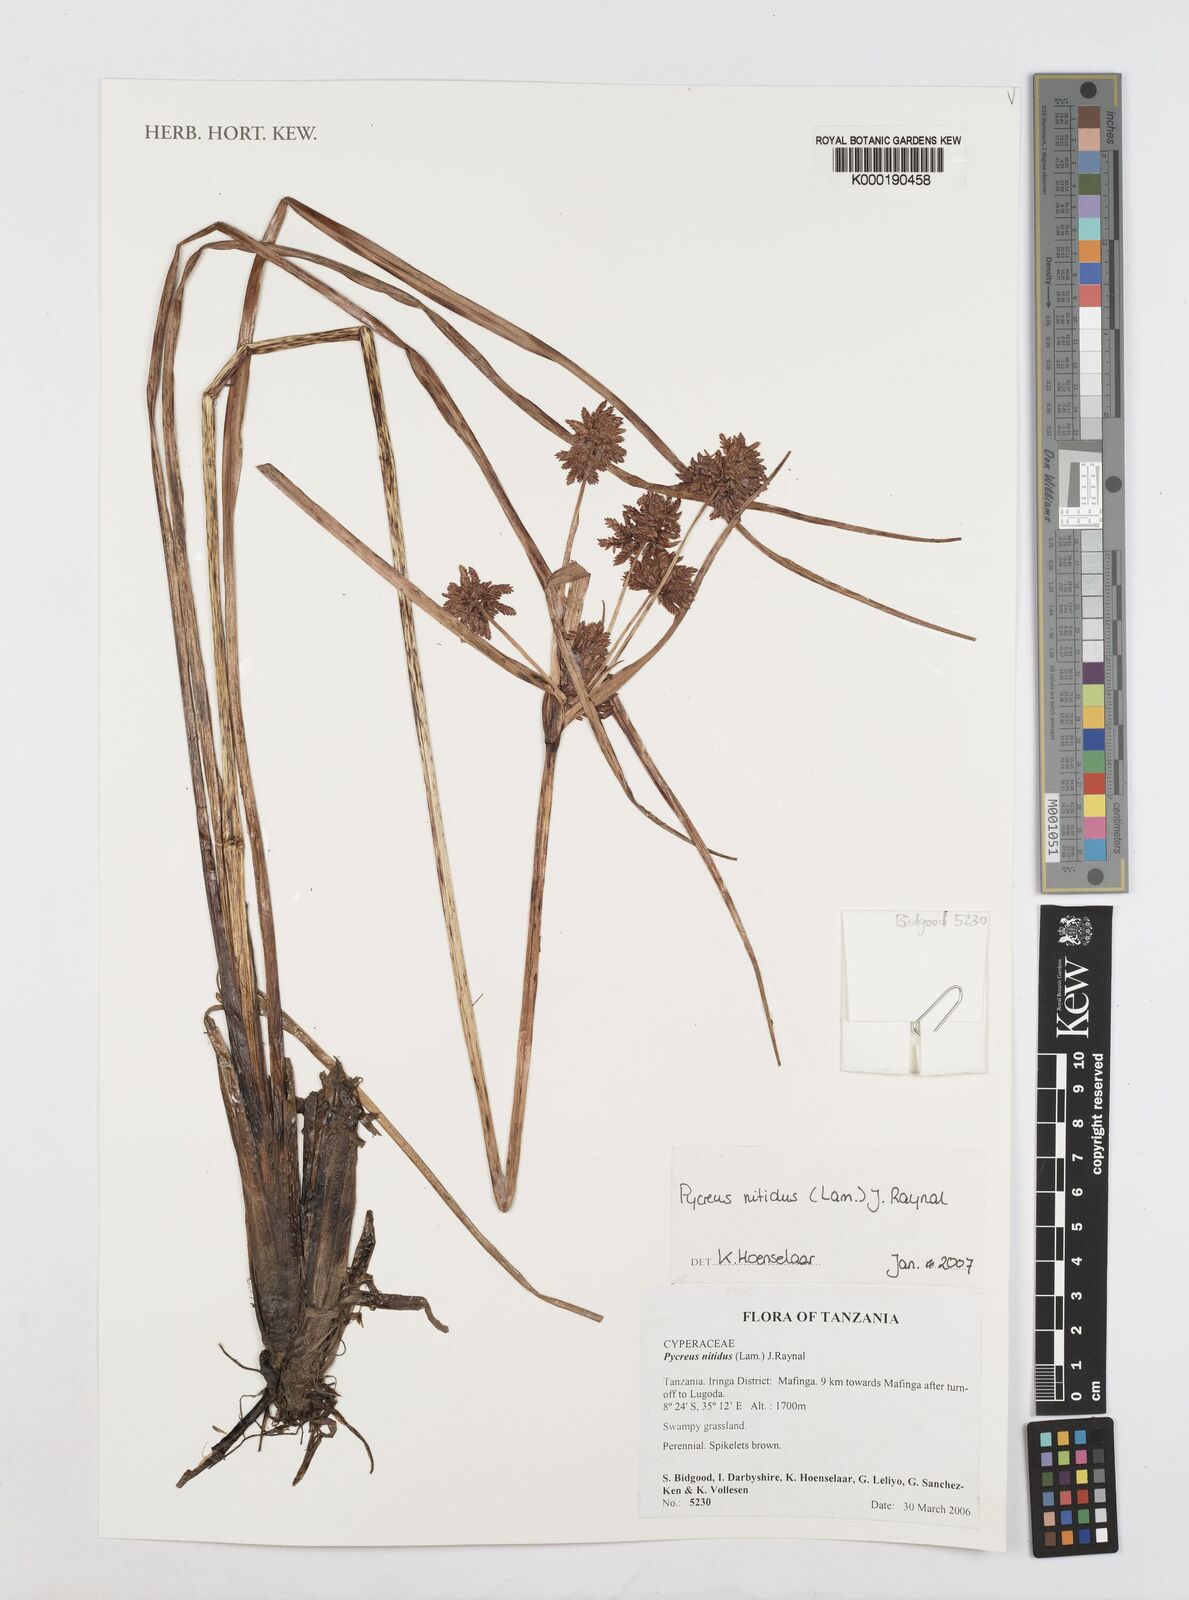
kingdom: Plantae
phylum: Tracheophyta
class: Liliopsida
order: Poales
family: Cyperaceae
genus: Cyperus
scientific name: Cyperus nitidus
